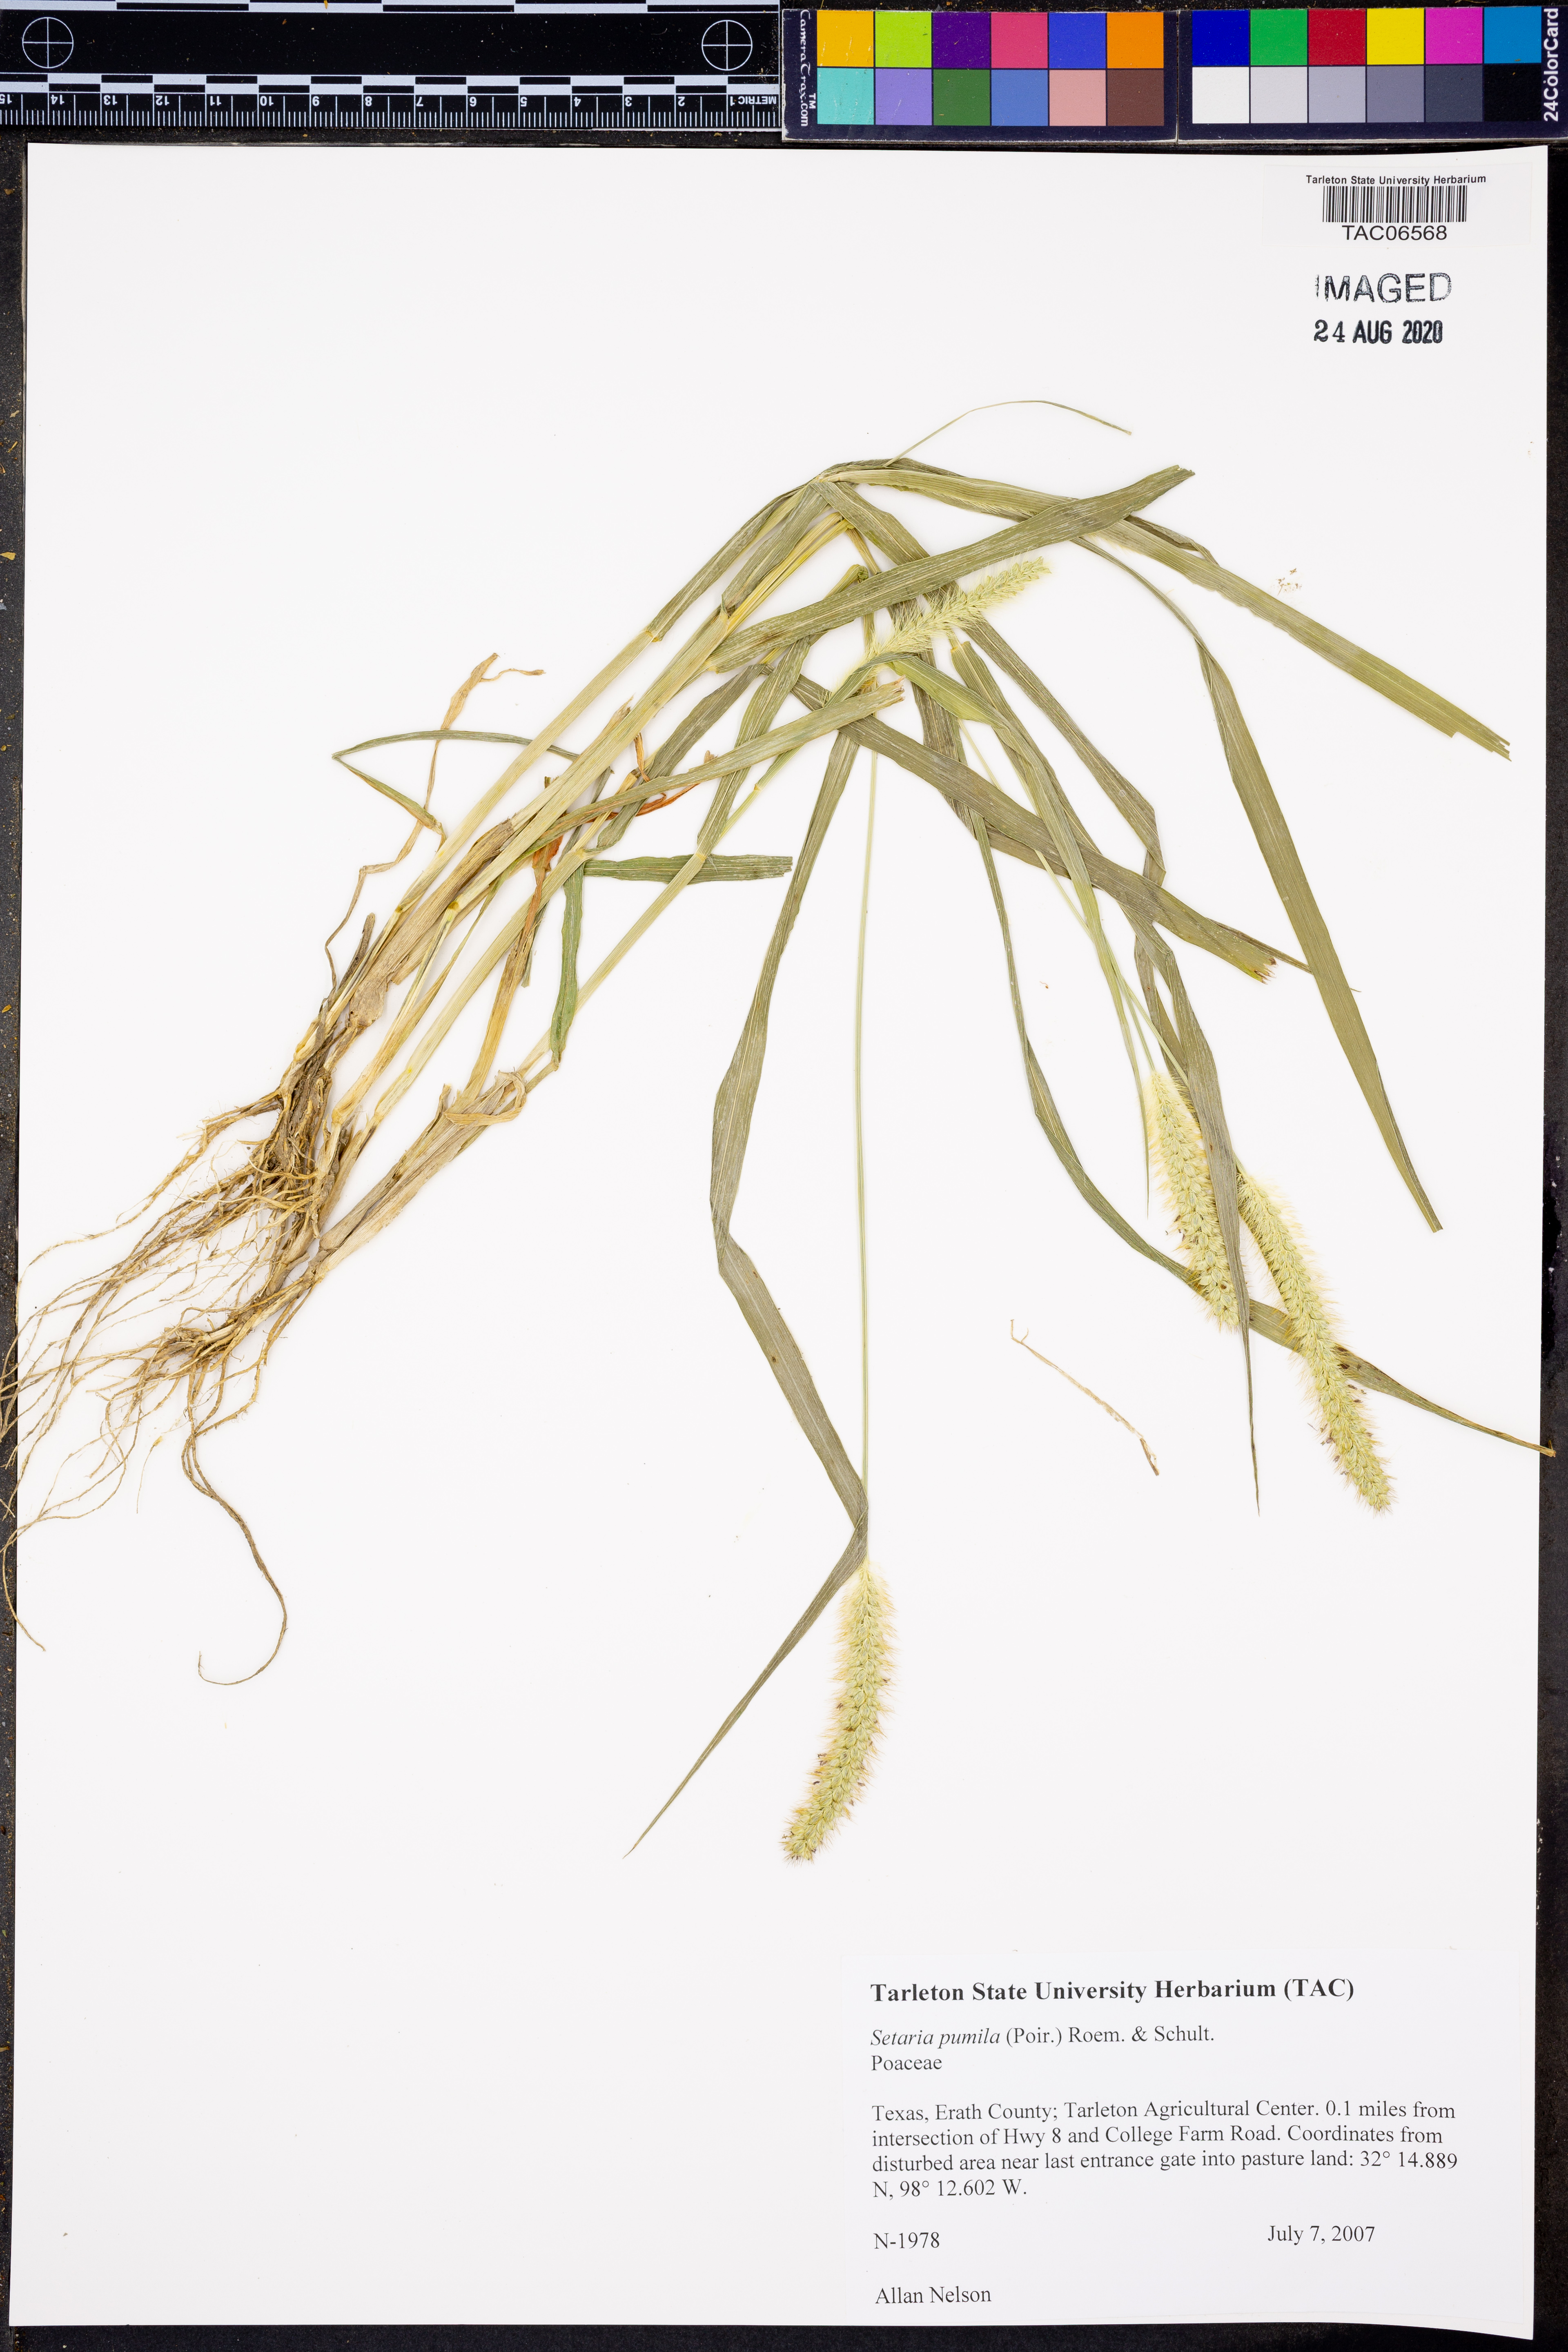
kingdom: Plantae
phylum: Tracheophyta
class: Liliopsida
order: Poales
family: Poaceae
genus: Setaria
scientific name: Setaria pumila
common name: Yellow bristle-grass
